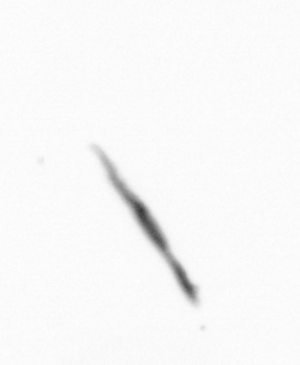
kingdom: Chromista
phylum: Ochrophyta
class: Bacillariophyceae
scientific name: Bacillariophyceae
